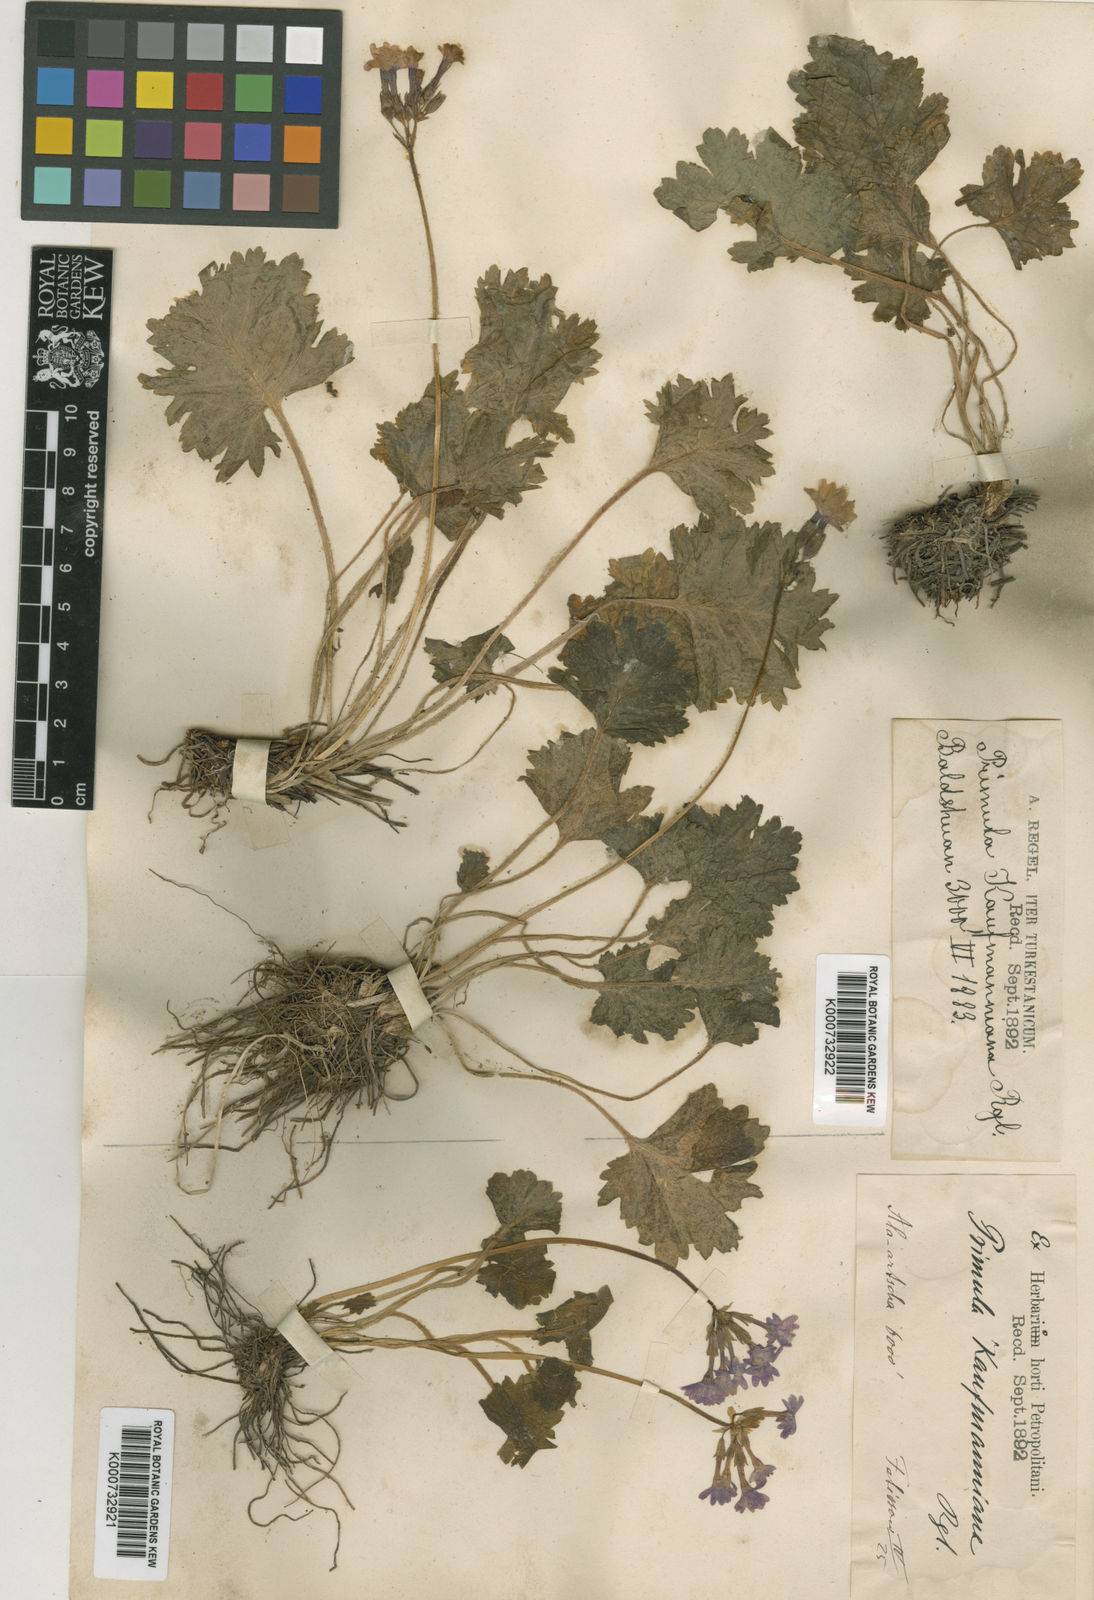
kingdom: Plantae
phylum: Tracheophyta
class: Magnoliopsida
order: Ericales
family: Primulaceae
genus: Primula
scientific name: Primula kaufmanniana
